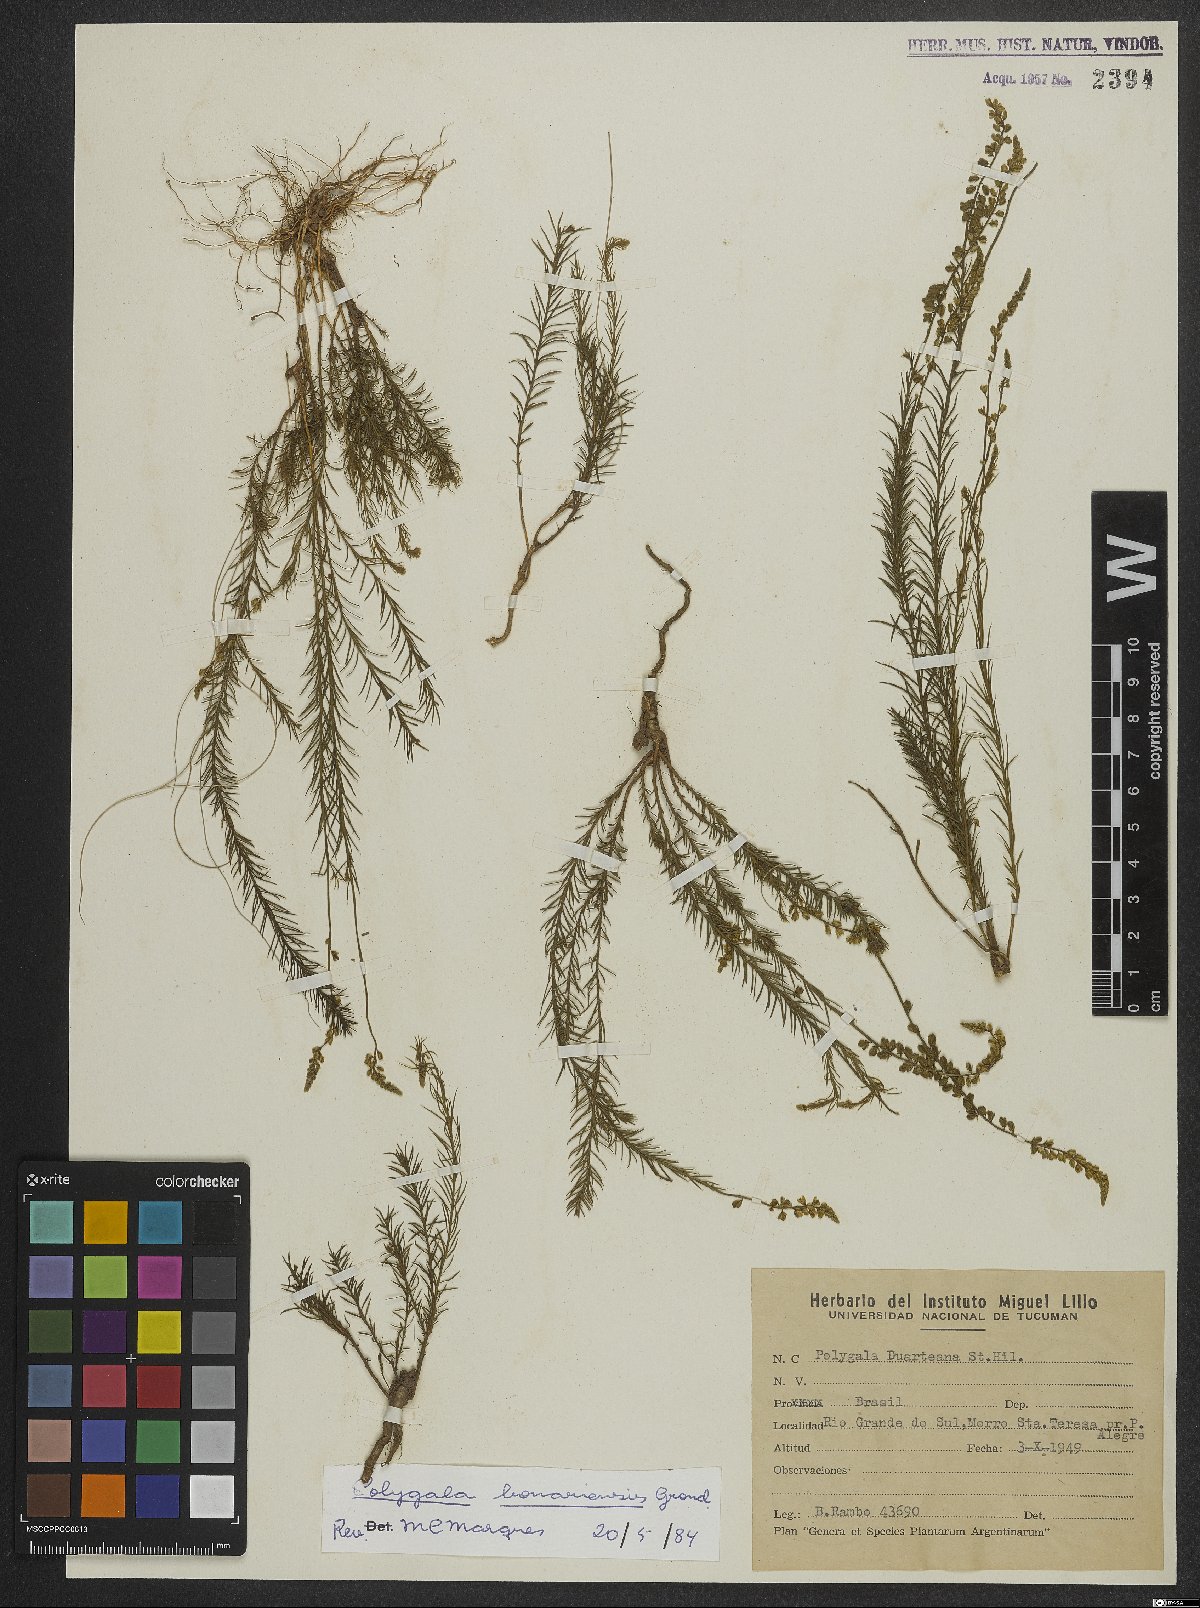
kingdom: Plantae
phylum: Tracheophyta
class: Magnoliopsida
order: Fabales
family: Polygalaceae
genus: Polygala
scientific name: Polygala bonariensis
